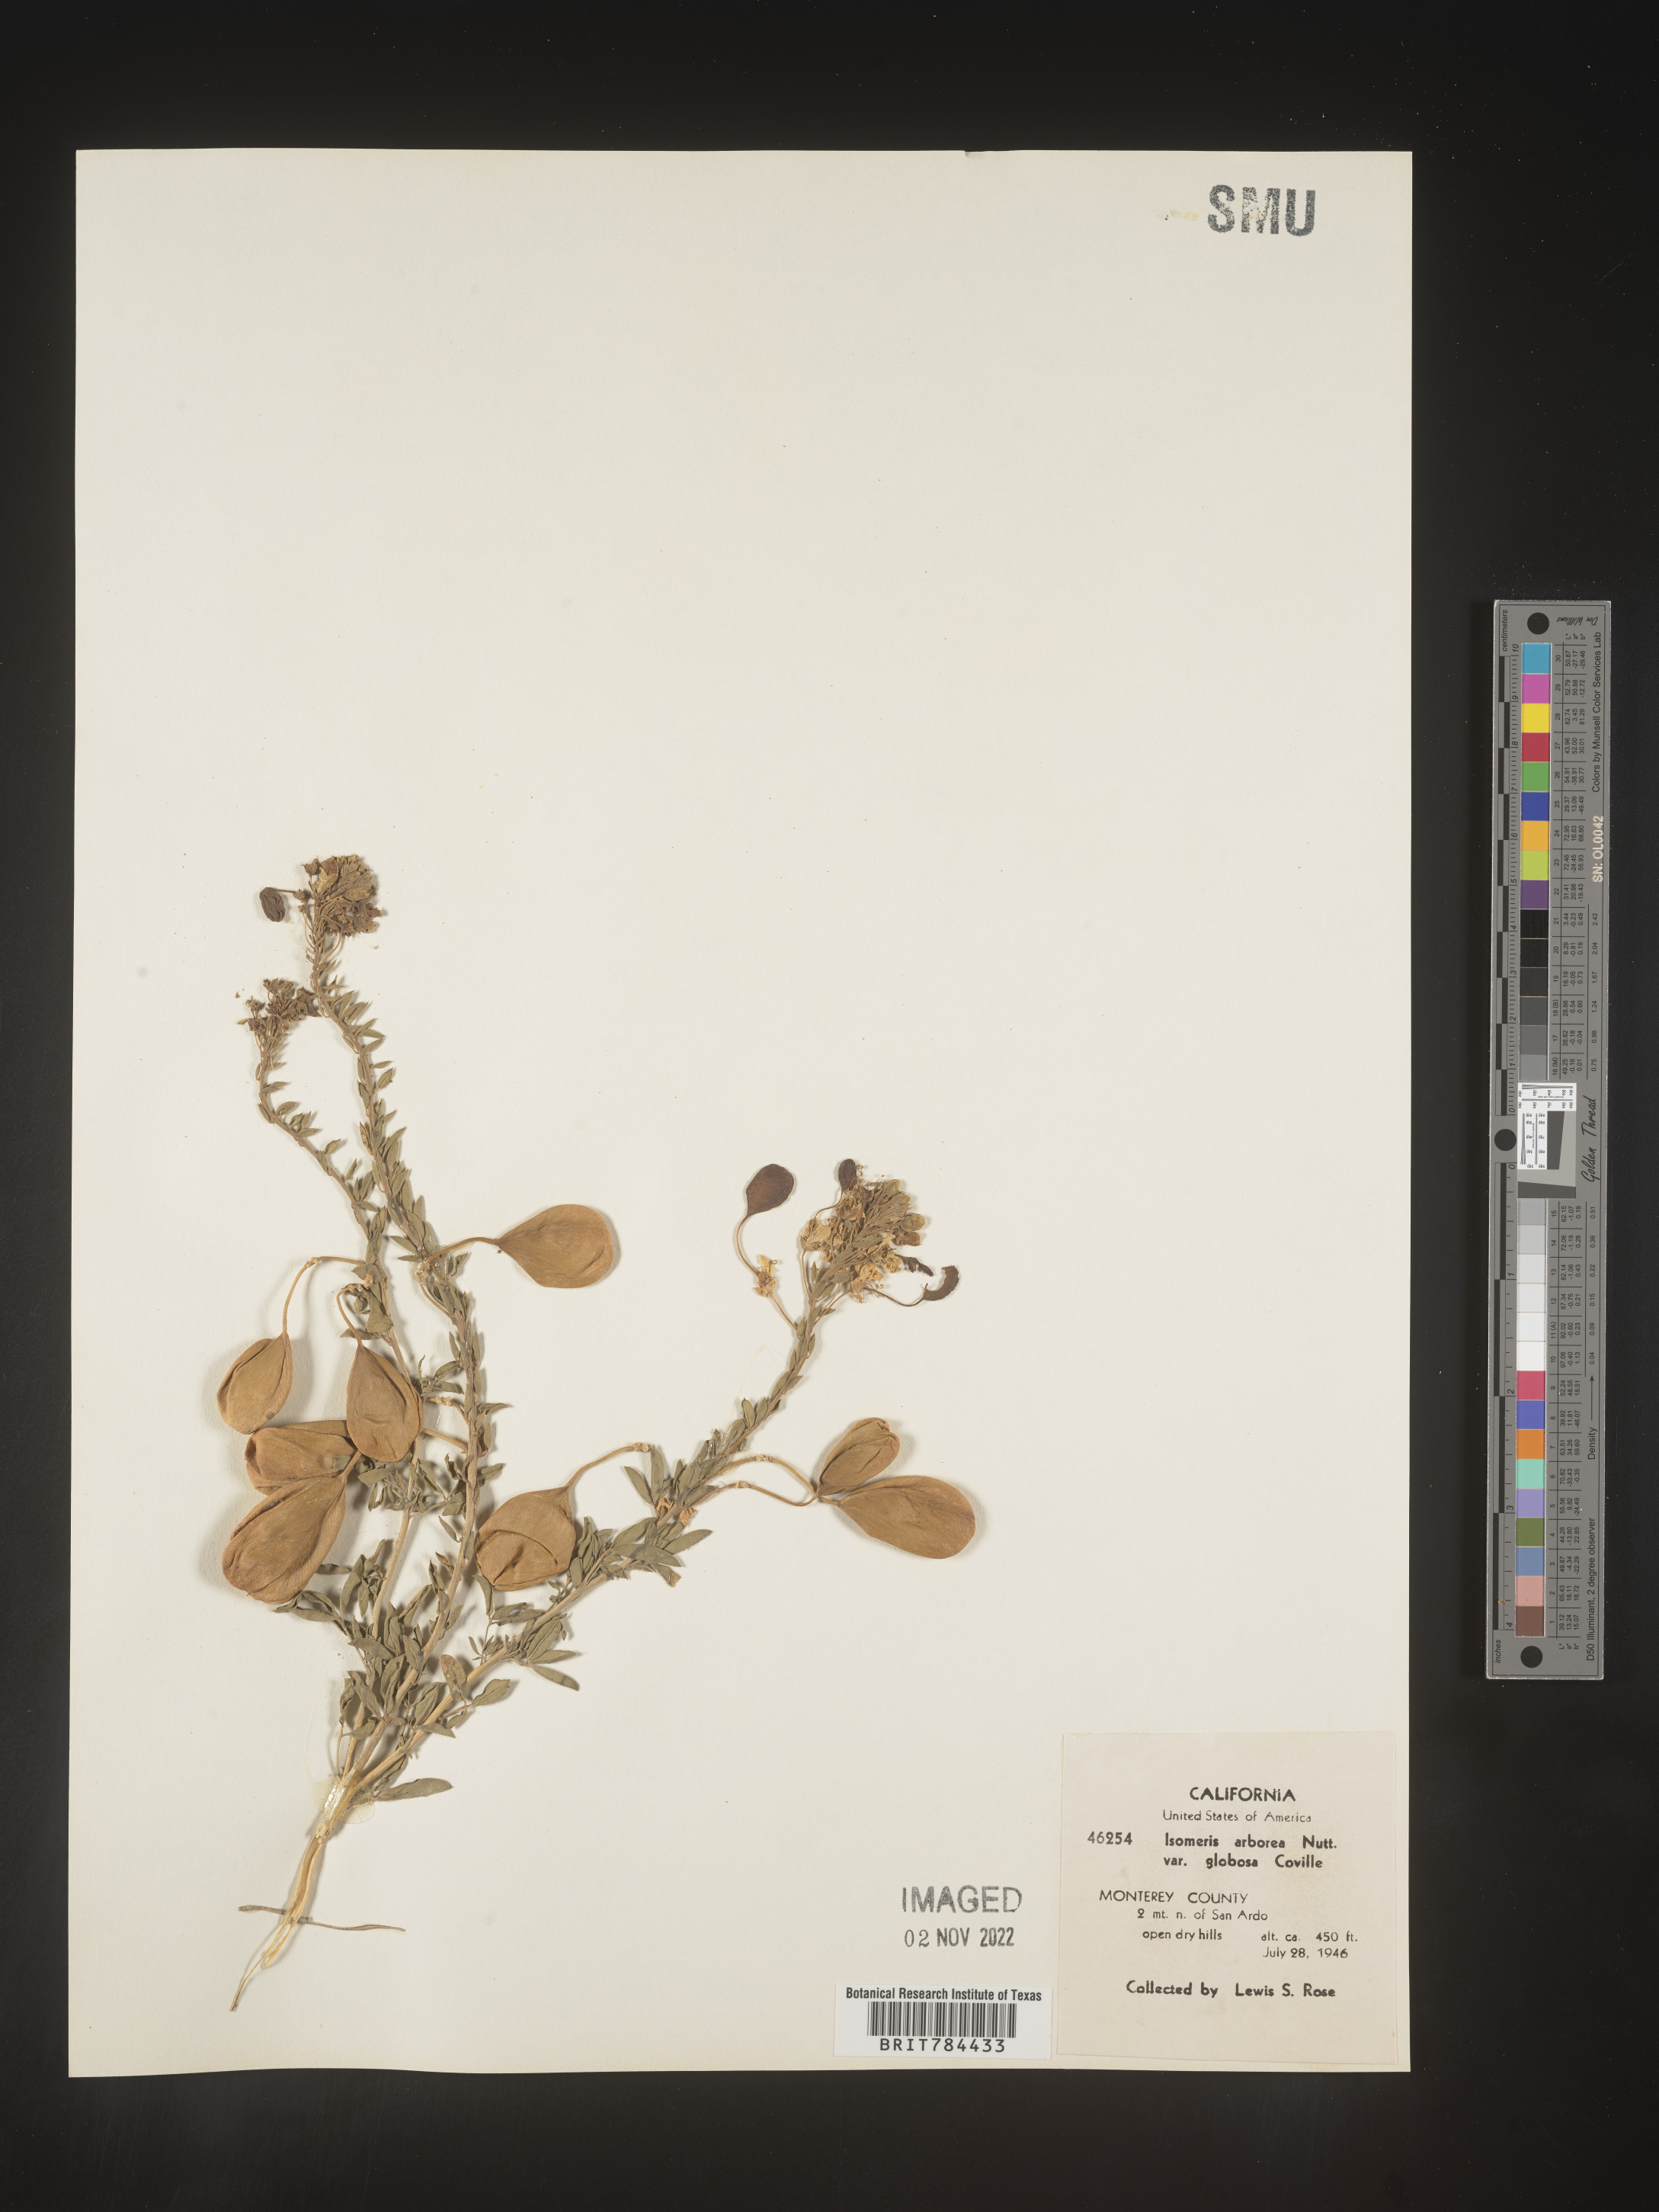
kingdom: Animalia
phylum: Arthropoda
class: Insecta
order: Hymenoptera
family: Ichneumonidae
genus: Isomeris
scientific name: Isomeris
